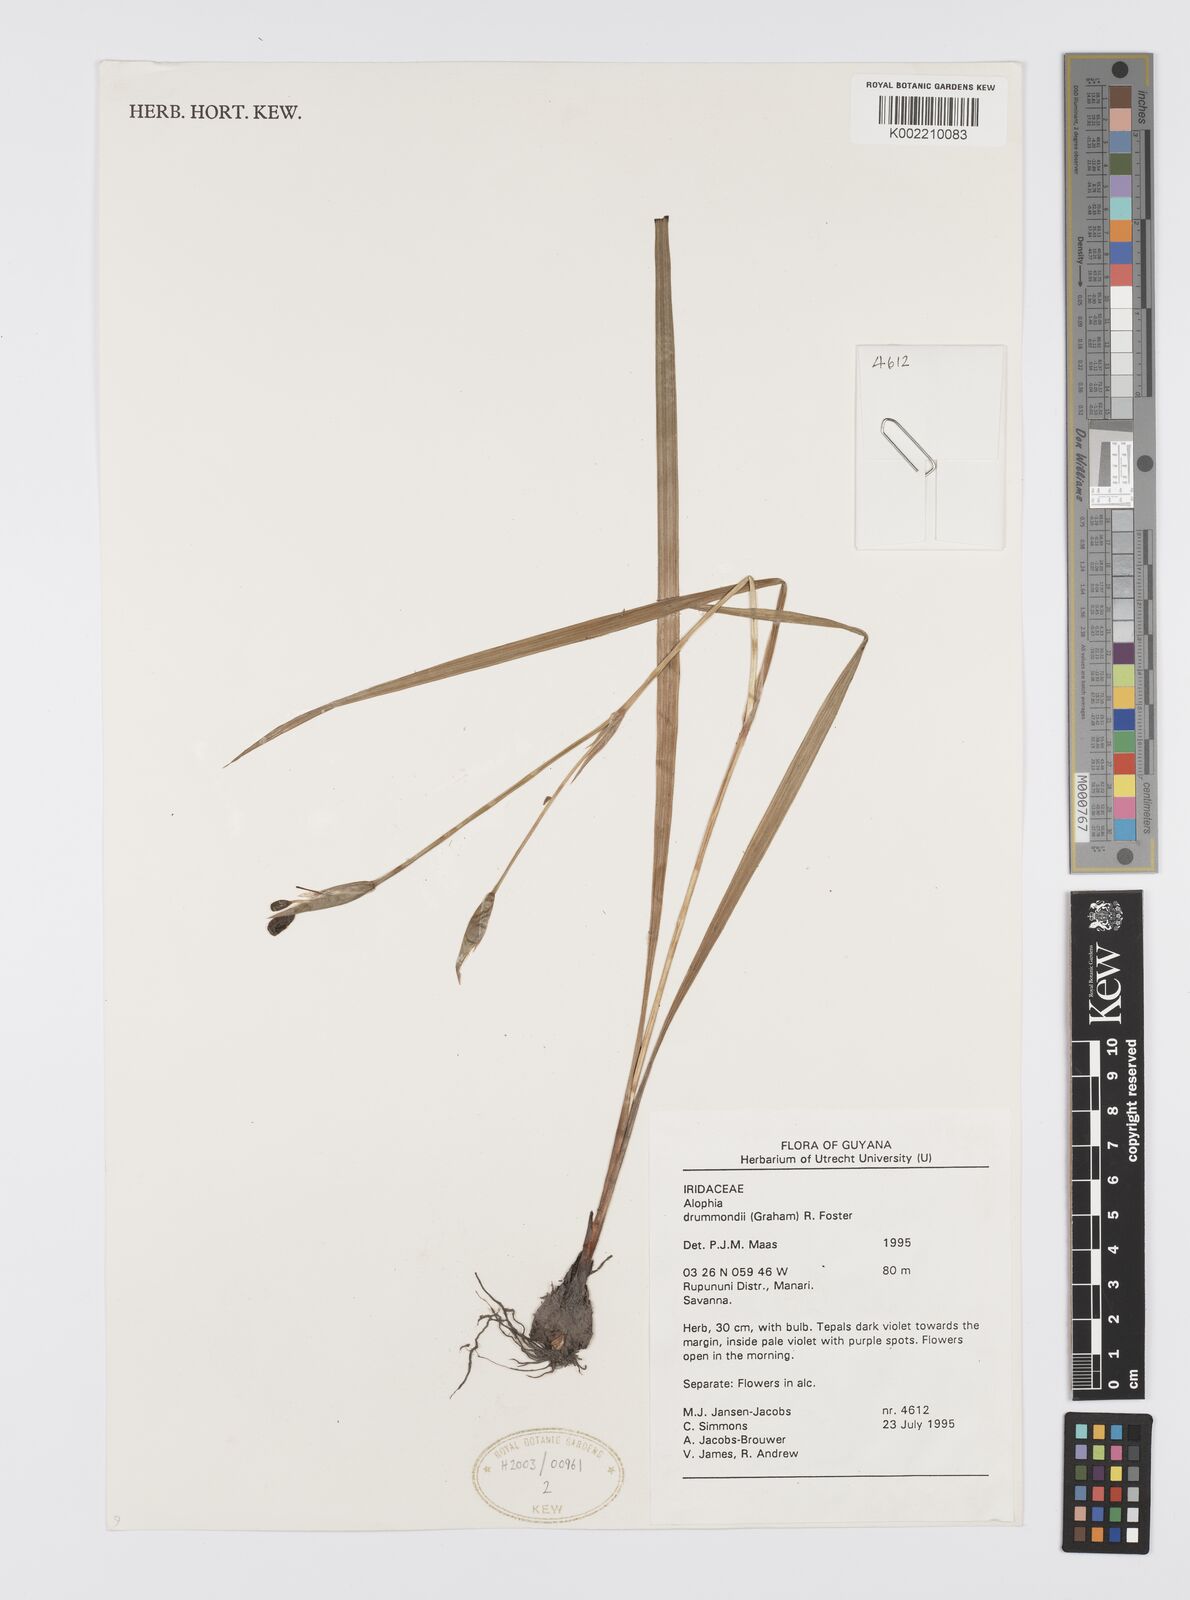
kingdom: Plantae
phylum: Tracheophyta
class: Liliopsida
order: Asparagales
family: Iridaceae
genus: Alophia
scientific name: Alophia drummondii
